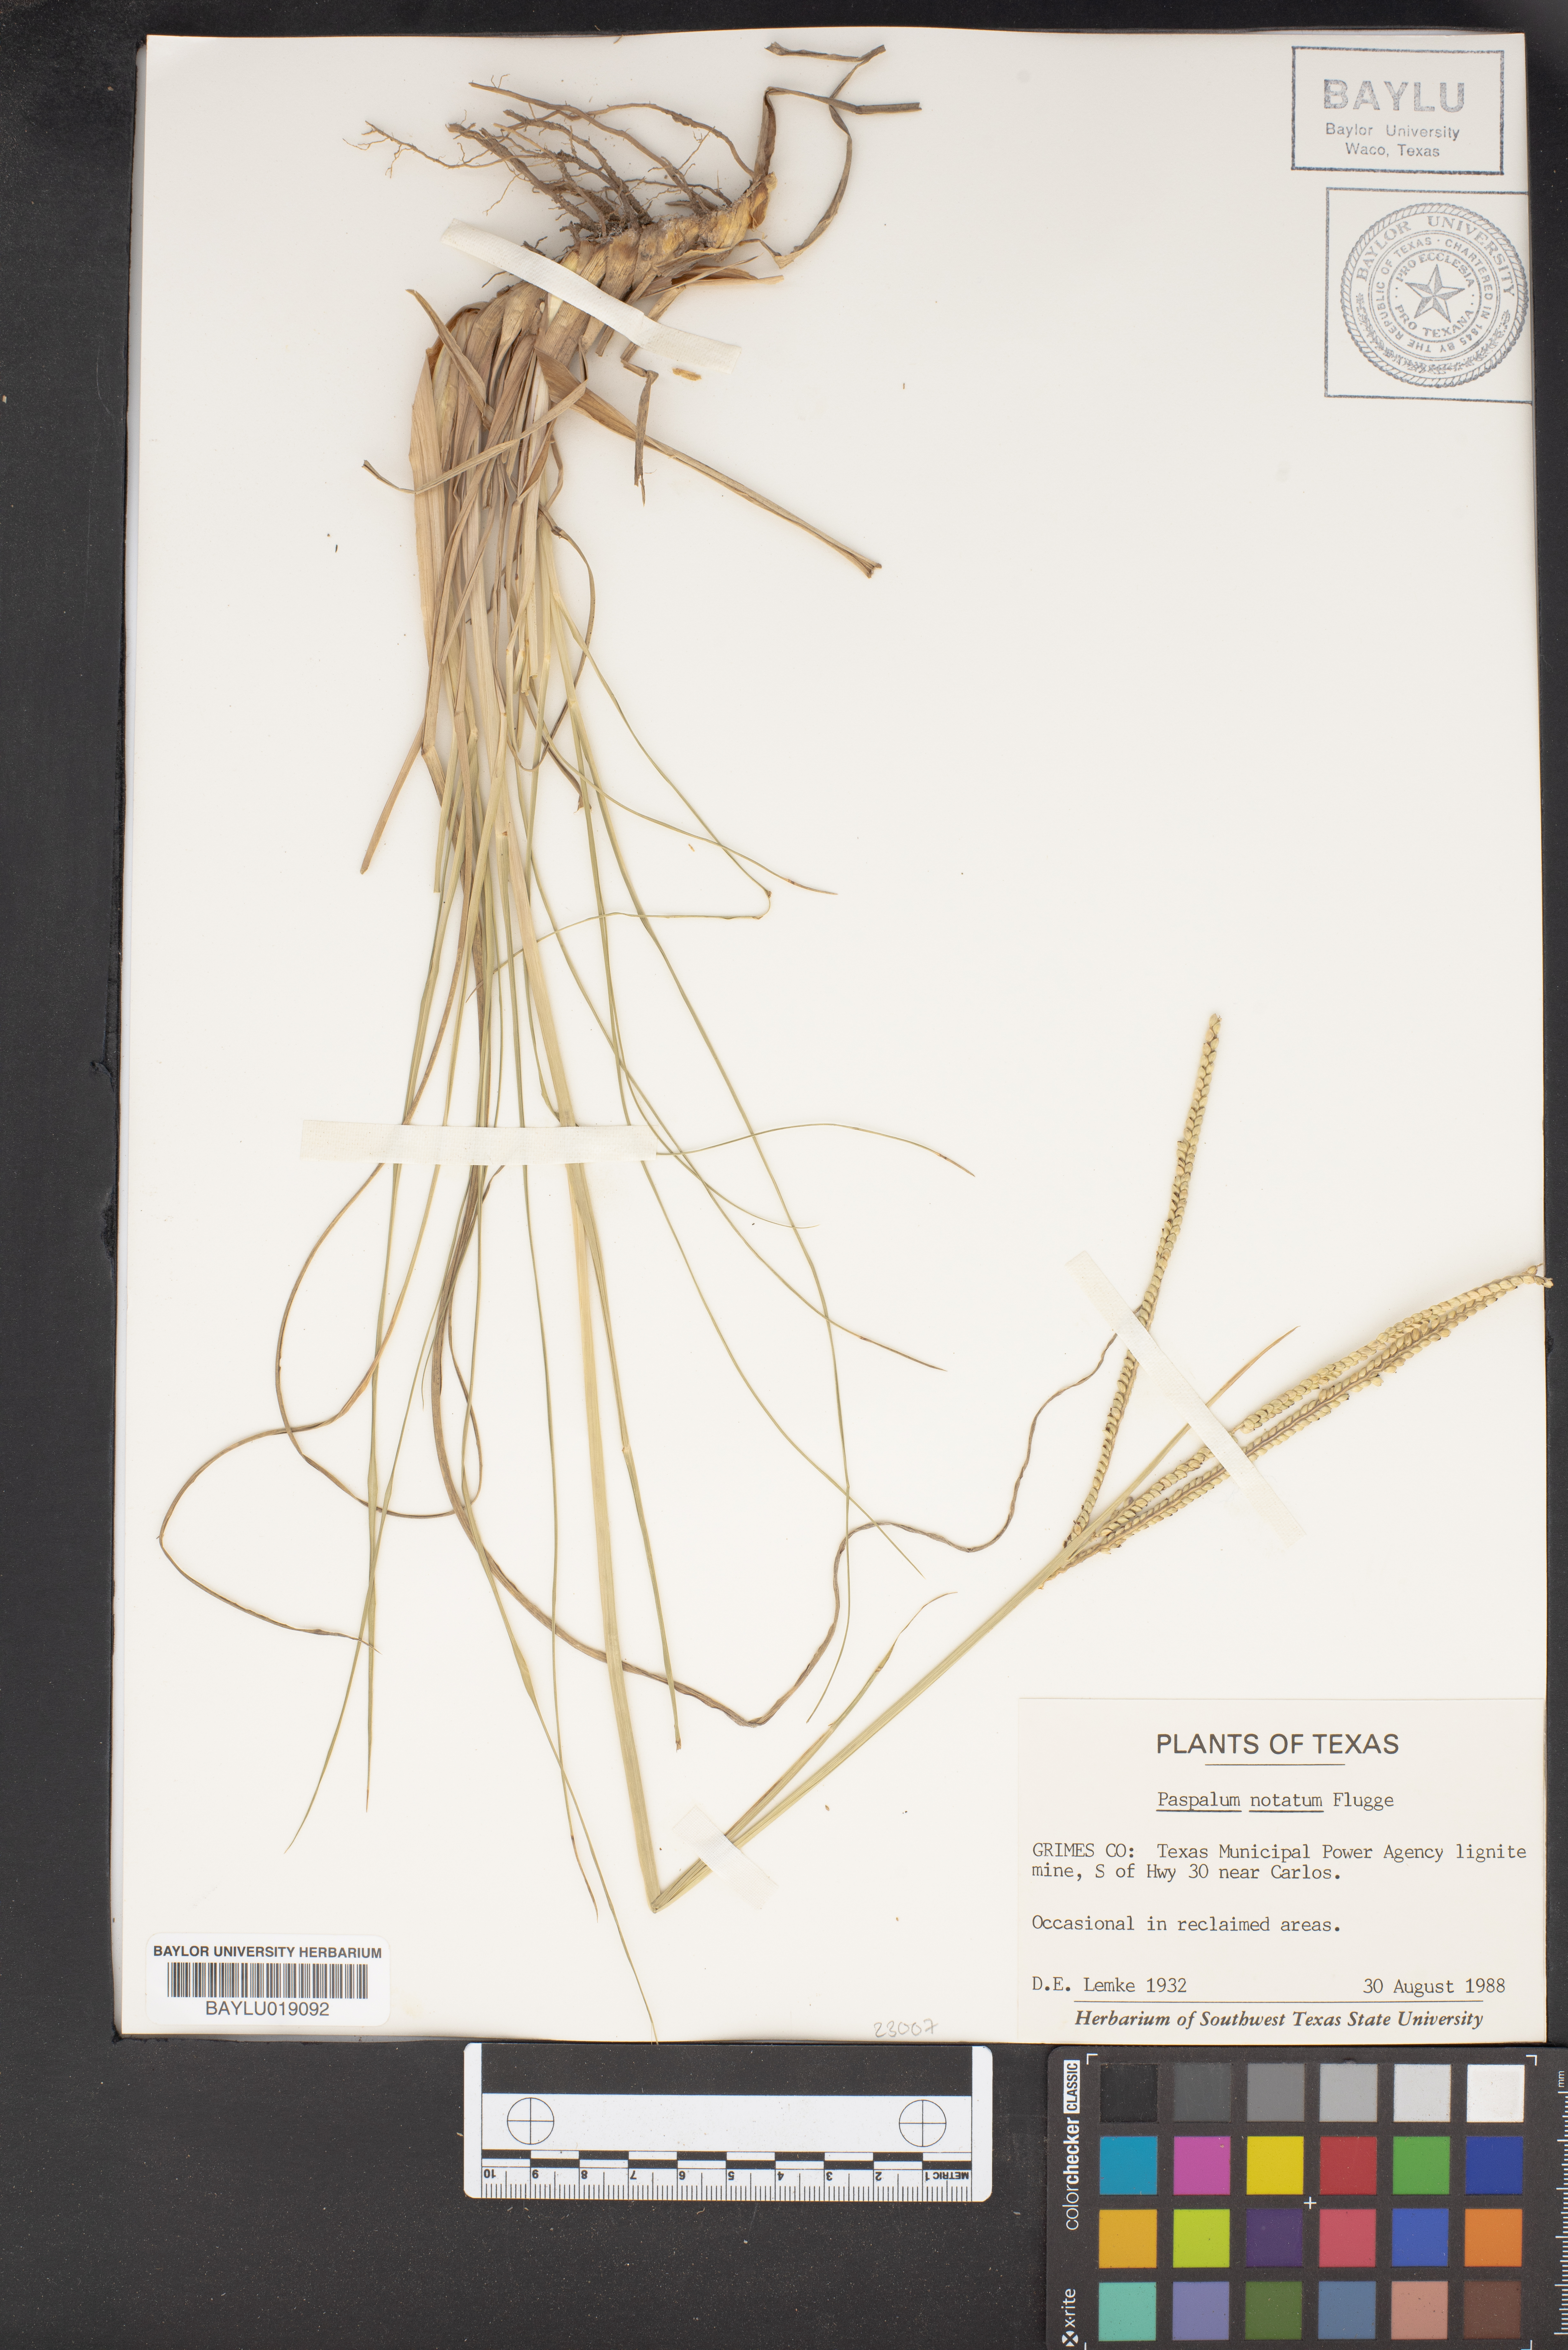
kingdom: Plantae
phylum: Tracheophyta
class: Liliopsida
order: Poales
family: Poaceae
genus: Paspalum
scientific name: Paspalum notatum
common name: Bahiagrass
